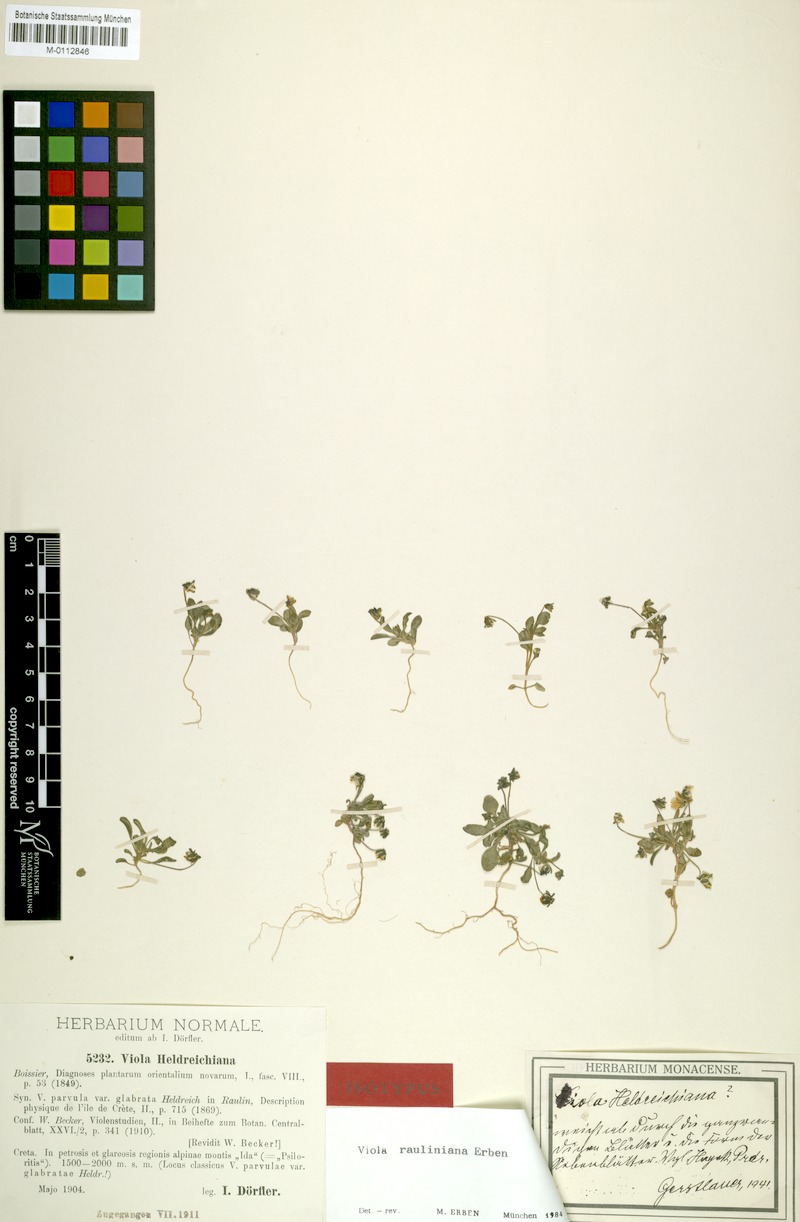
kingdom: Plantae
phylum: Tracheophyta
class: Magnoliopsida
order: Malpighiales
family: Violaceae
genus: Viola
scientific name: Viola rauliniana
